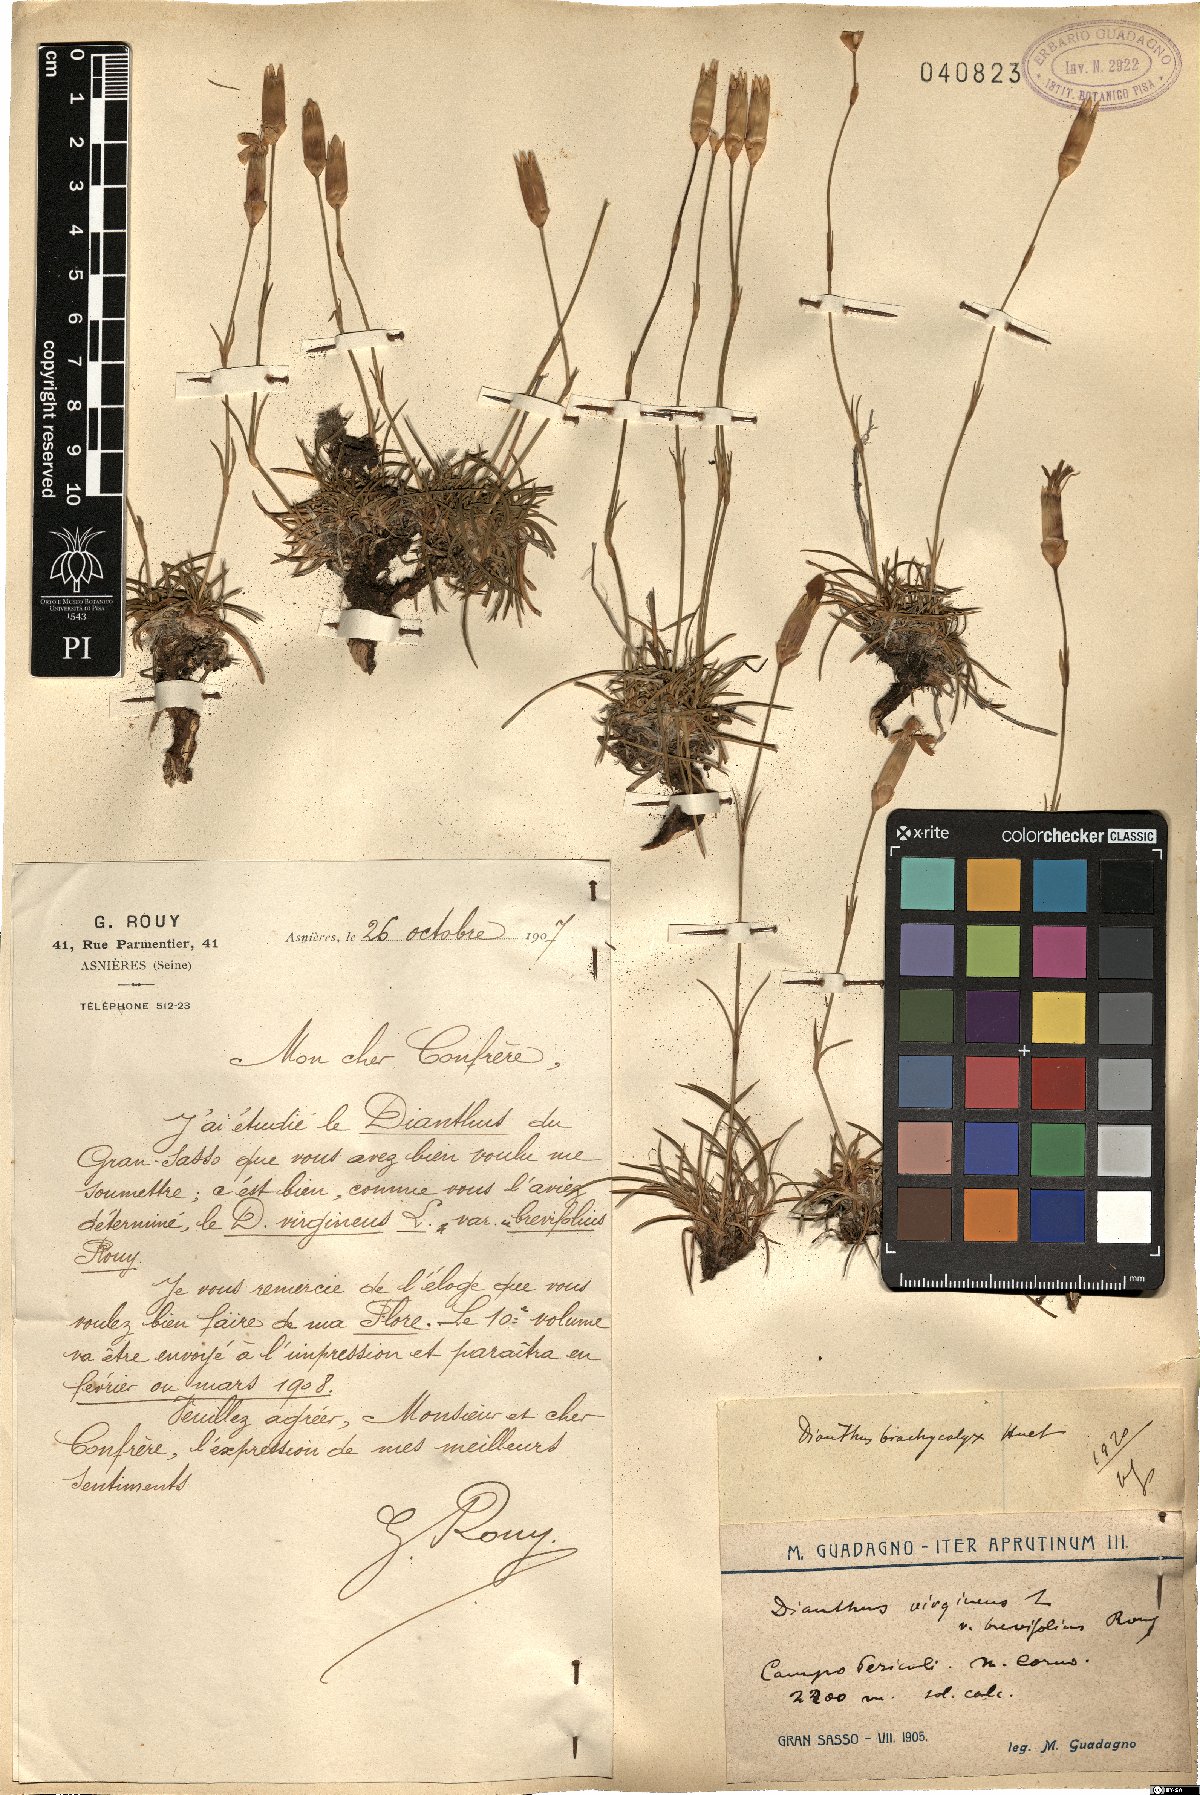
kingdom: Plantae
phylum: Tracheophyta
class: Magnoliopsida
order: Caryophyllales
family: Caryophyllaceae
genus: Dianthus
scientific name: Dianthus brachycalyx
